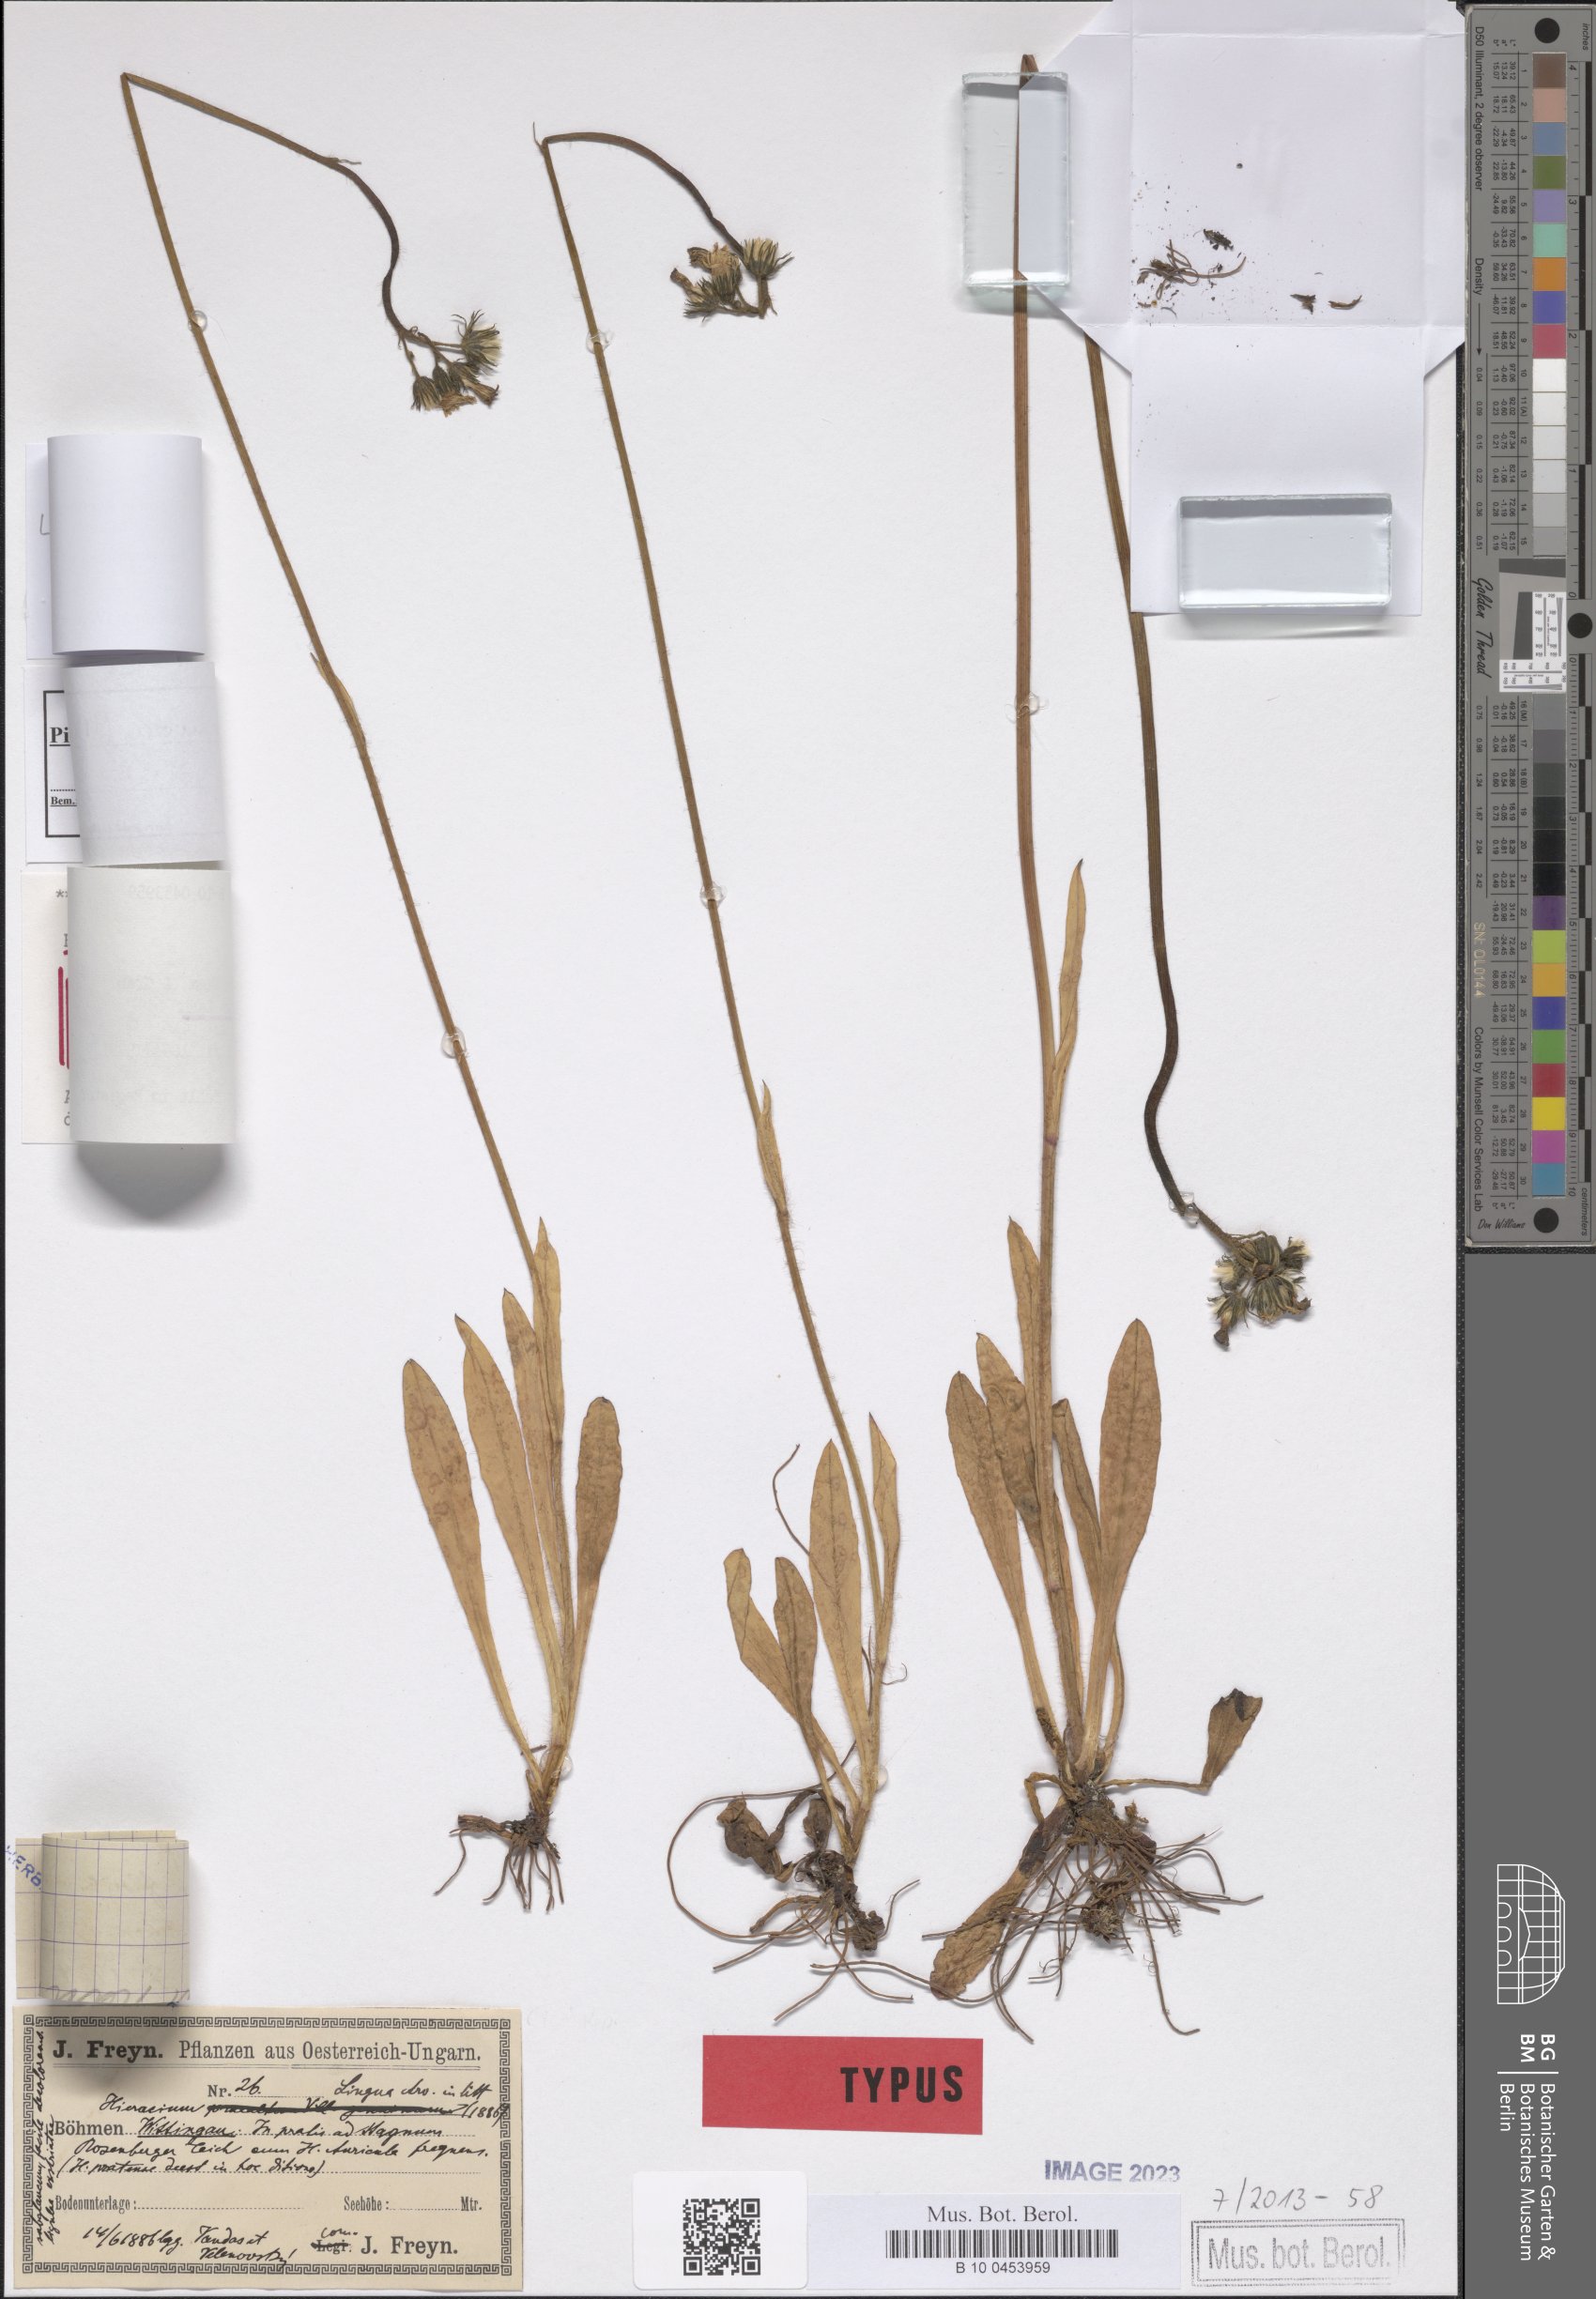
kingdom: Plantae
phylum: Tracheophyta
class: Magnoliopsida
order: Asterales
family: Asteraceae
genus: Pilosella
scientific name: Pilosella floribunda
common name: Glaucous hawkweed
